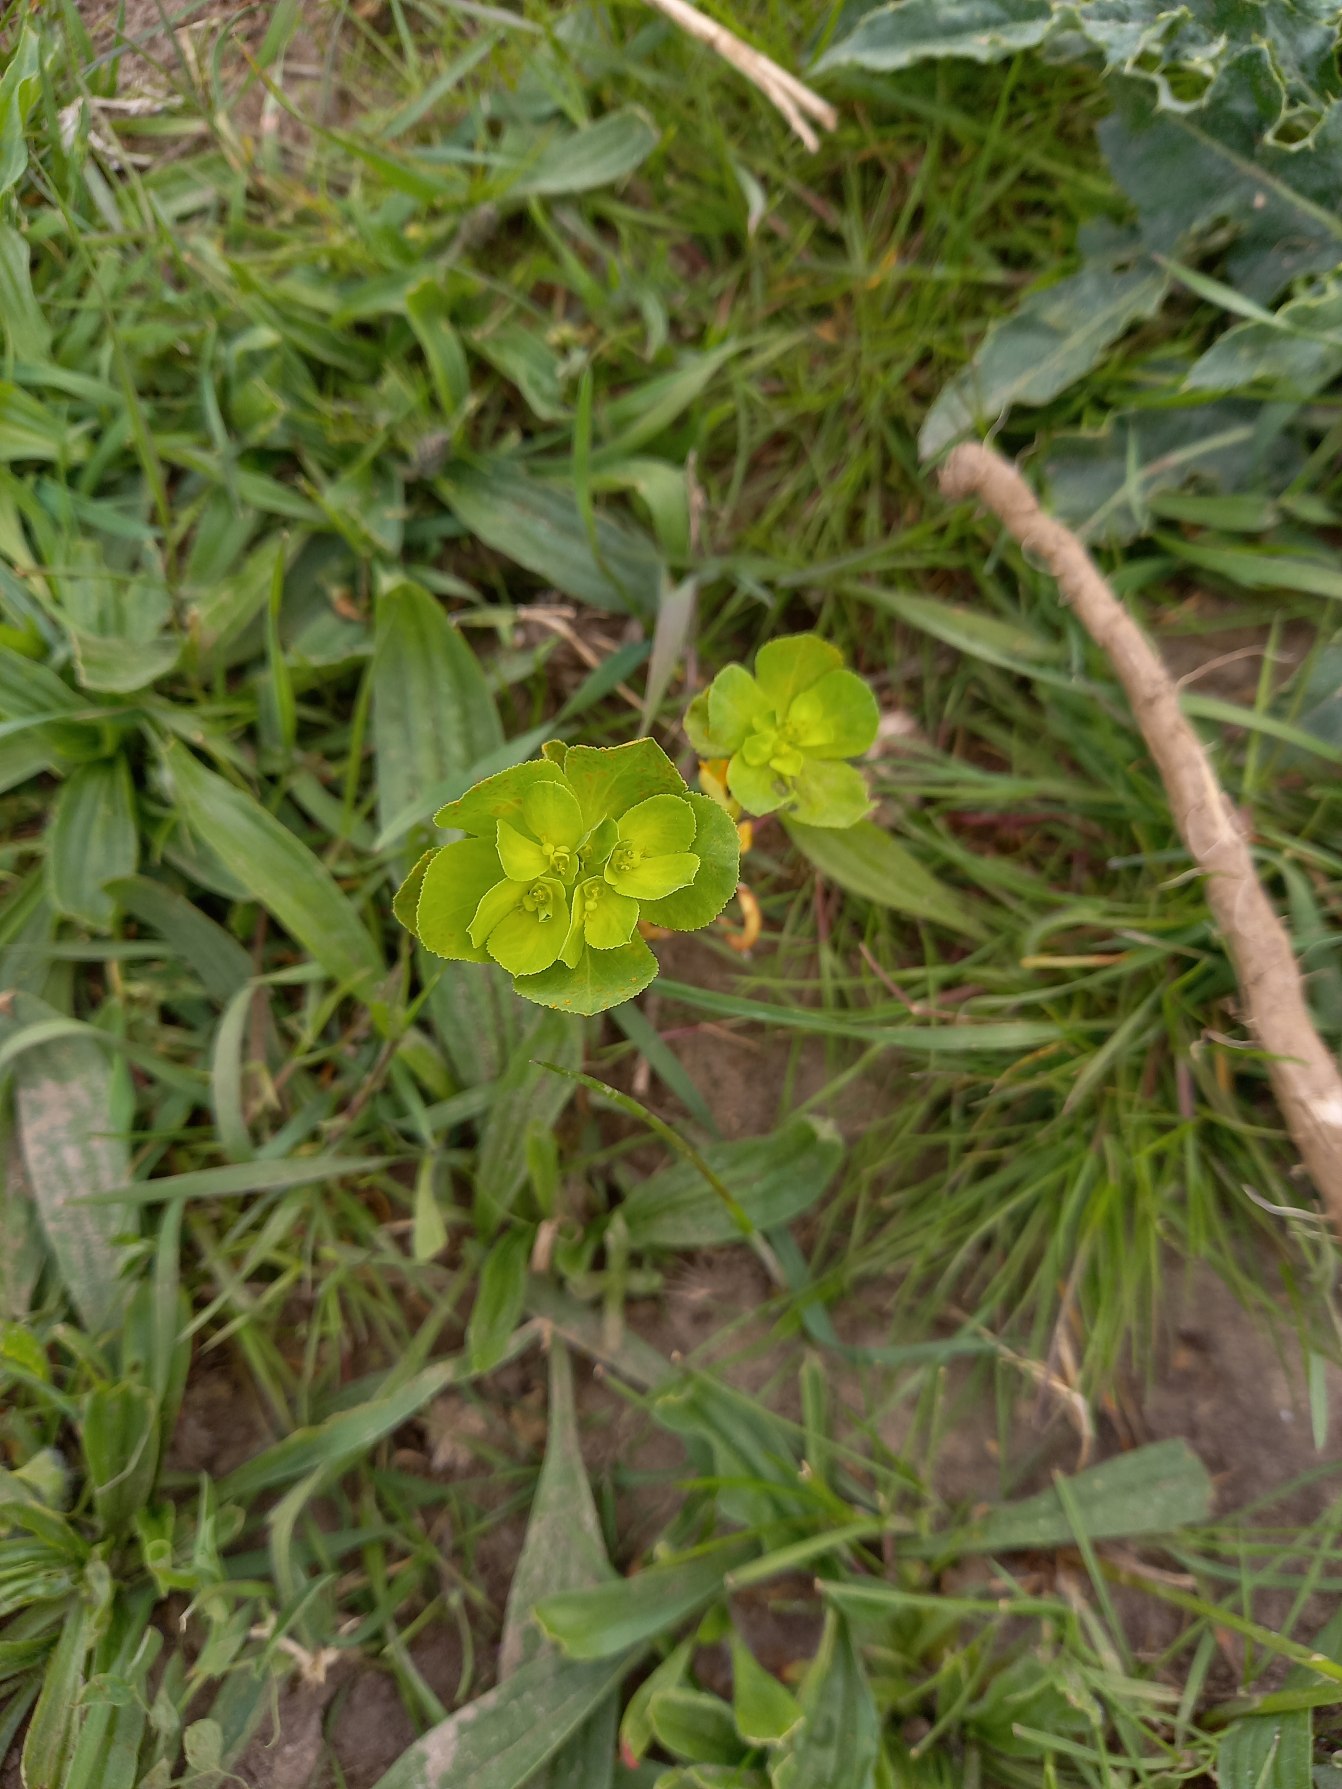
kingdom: Plantae
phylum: Tracheophyta
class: Magnoliopsida
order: Malpighiales
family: Euphorbiaceae
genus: Euphorbia
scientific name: Euphorbia helioscopia
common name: Skærm-vortemælk
